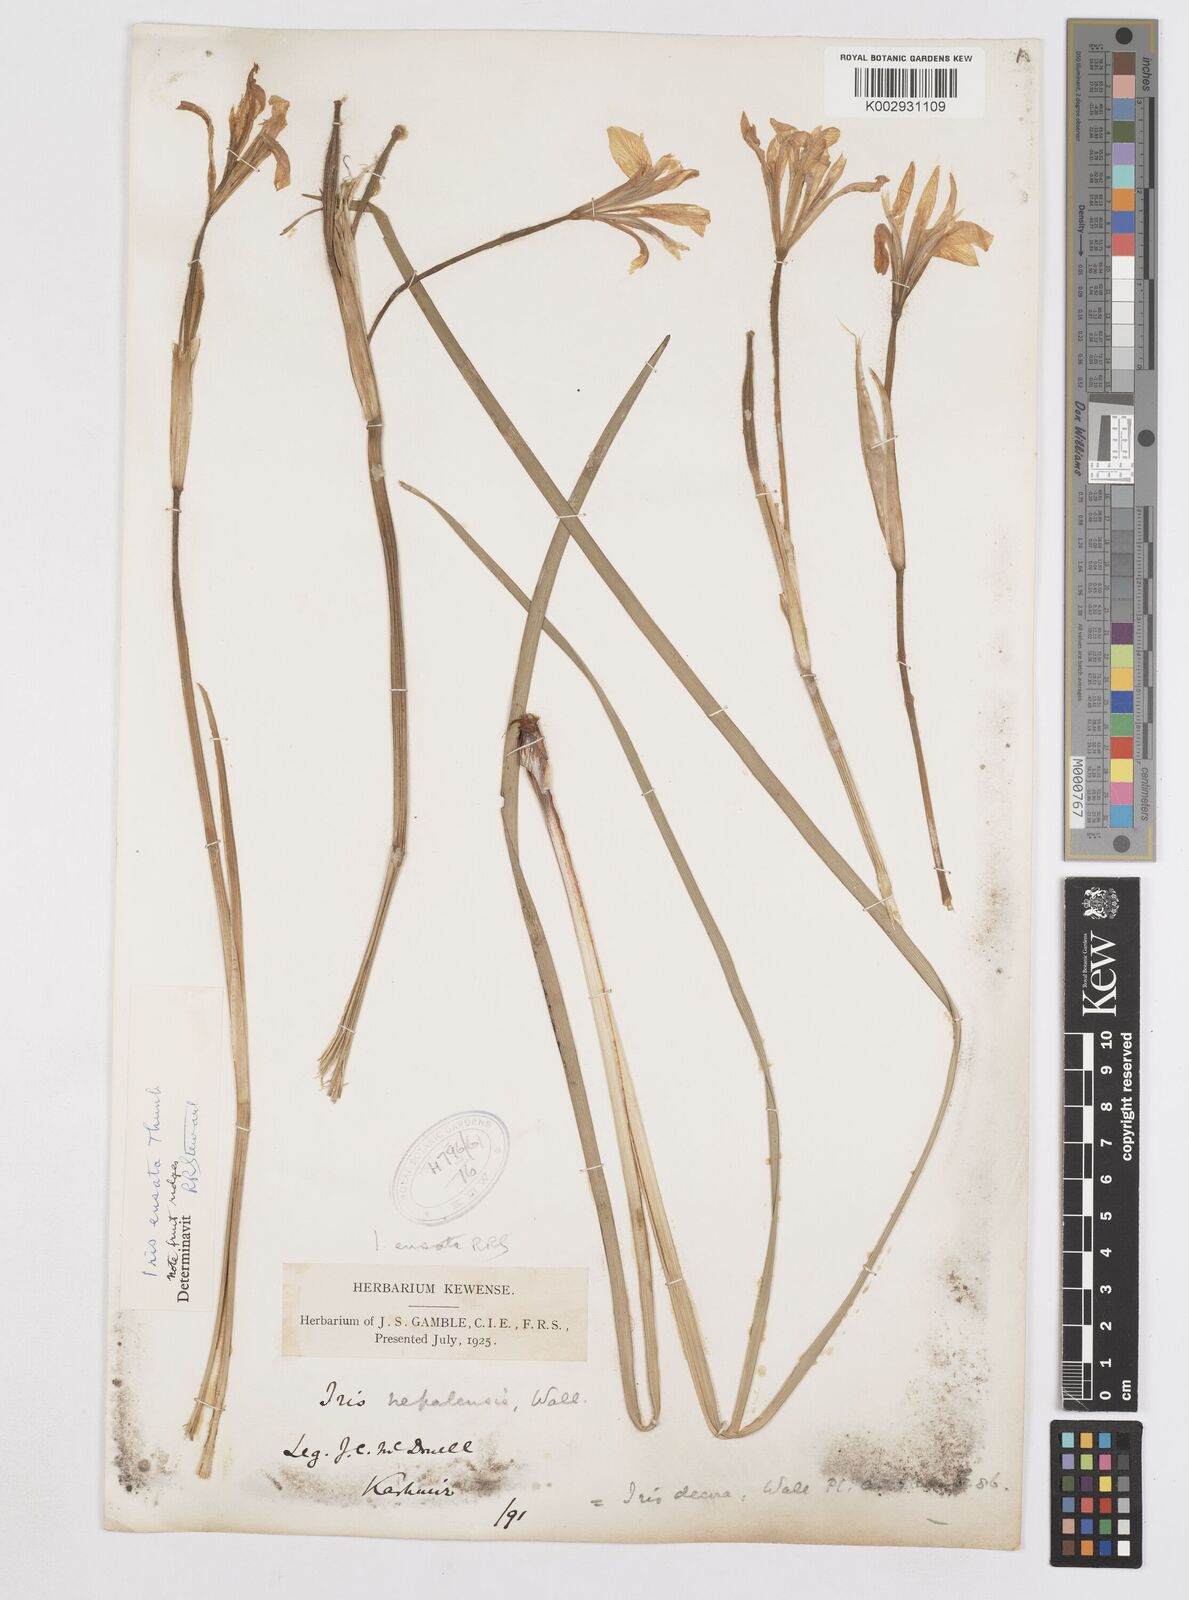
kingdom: Plantae
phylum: Tracheophyta
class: Liliopsida
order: Asparagales
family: Iridaceae
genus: Iris
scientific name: Iris ensata
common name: Beaked iris
